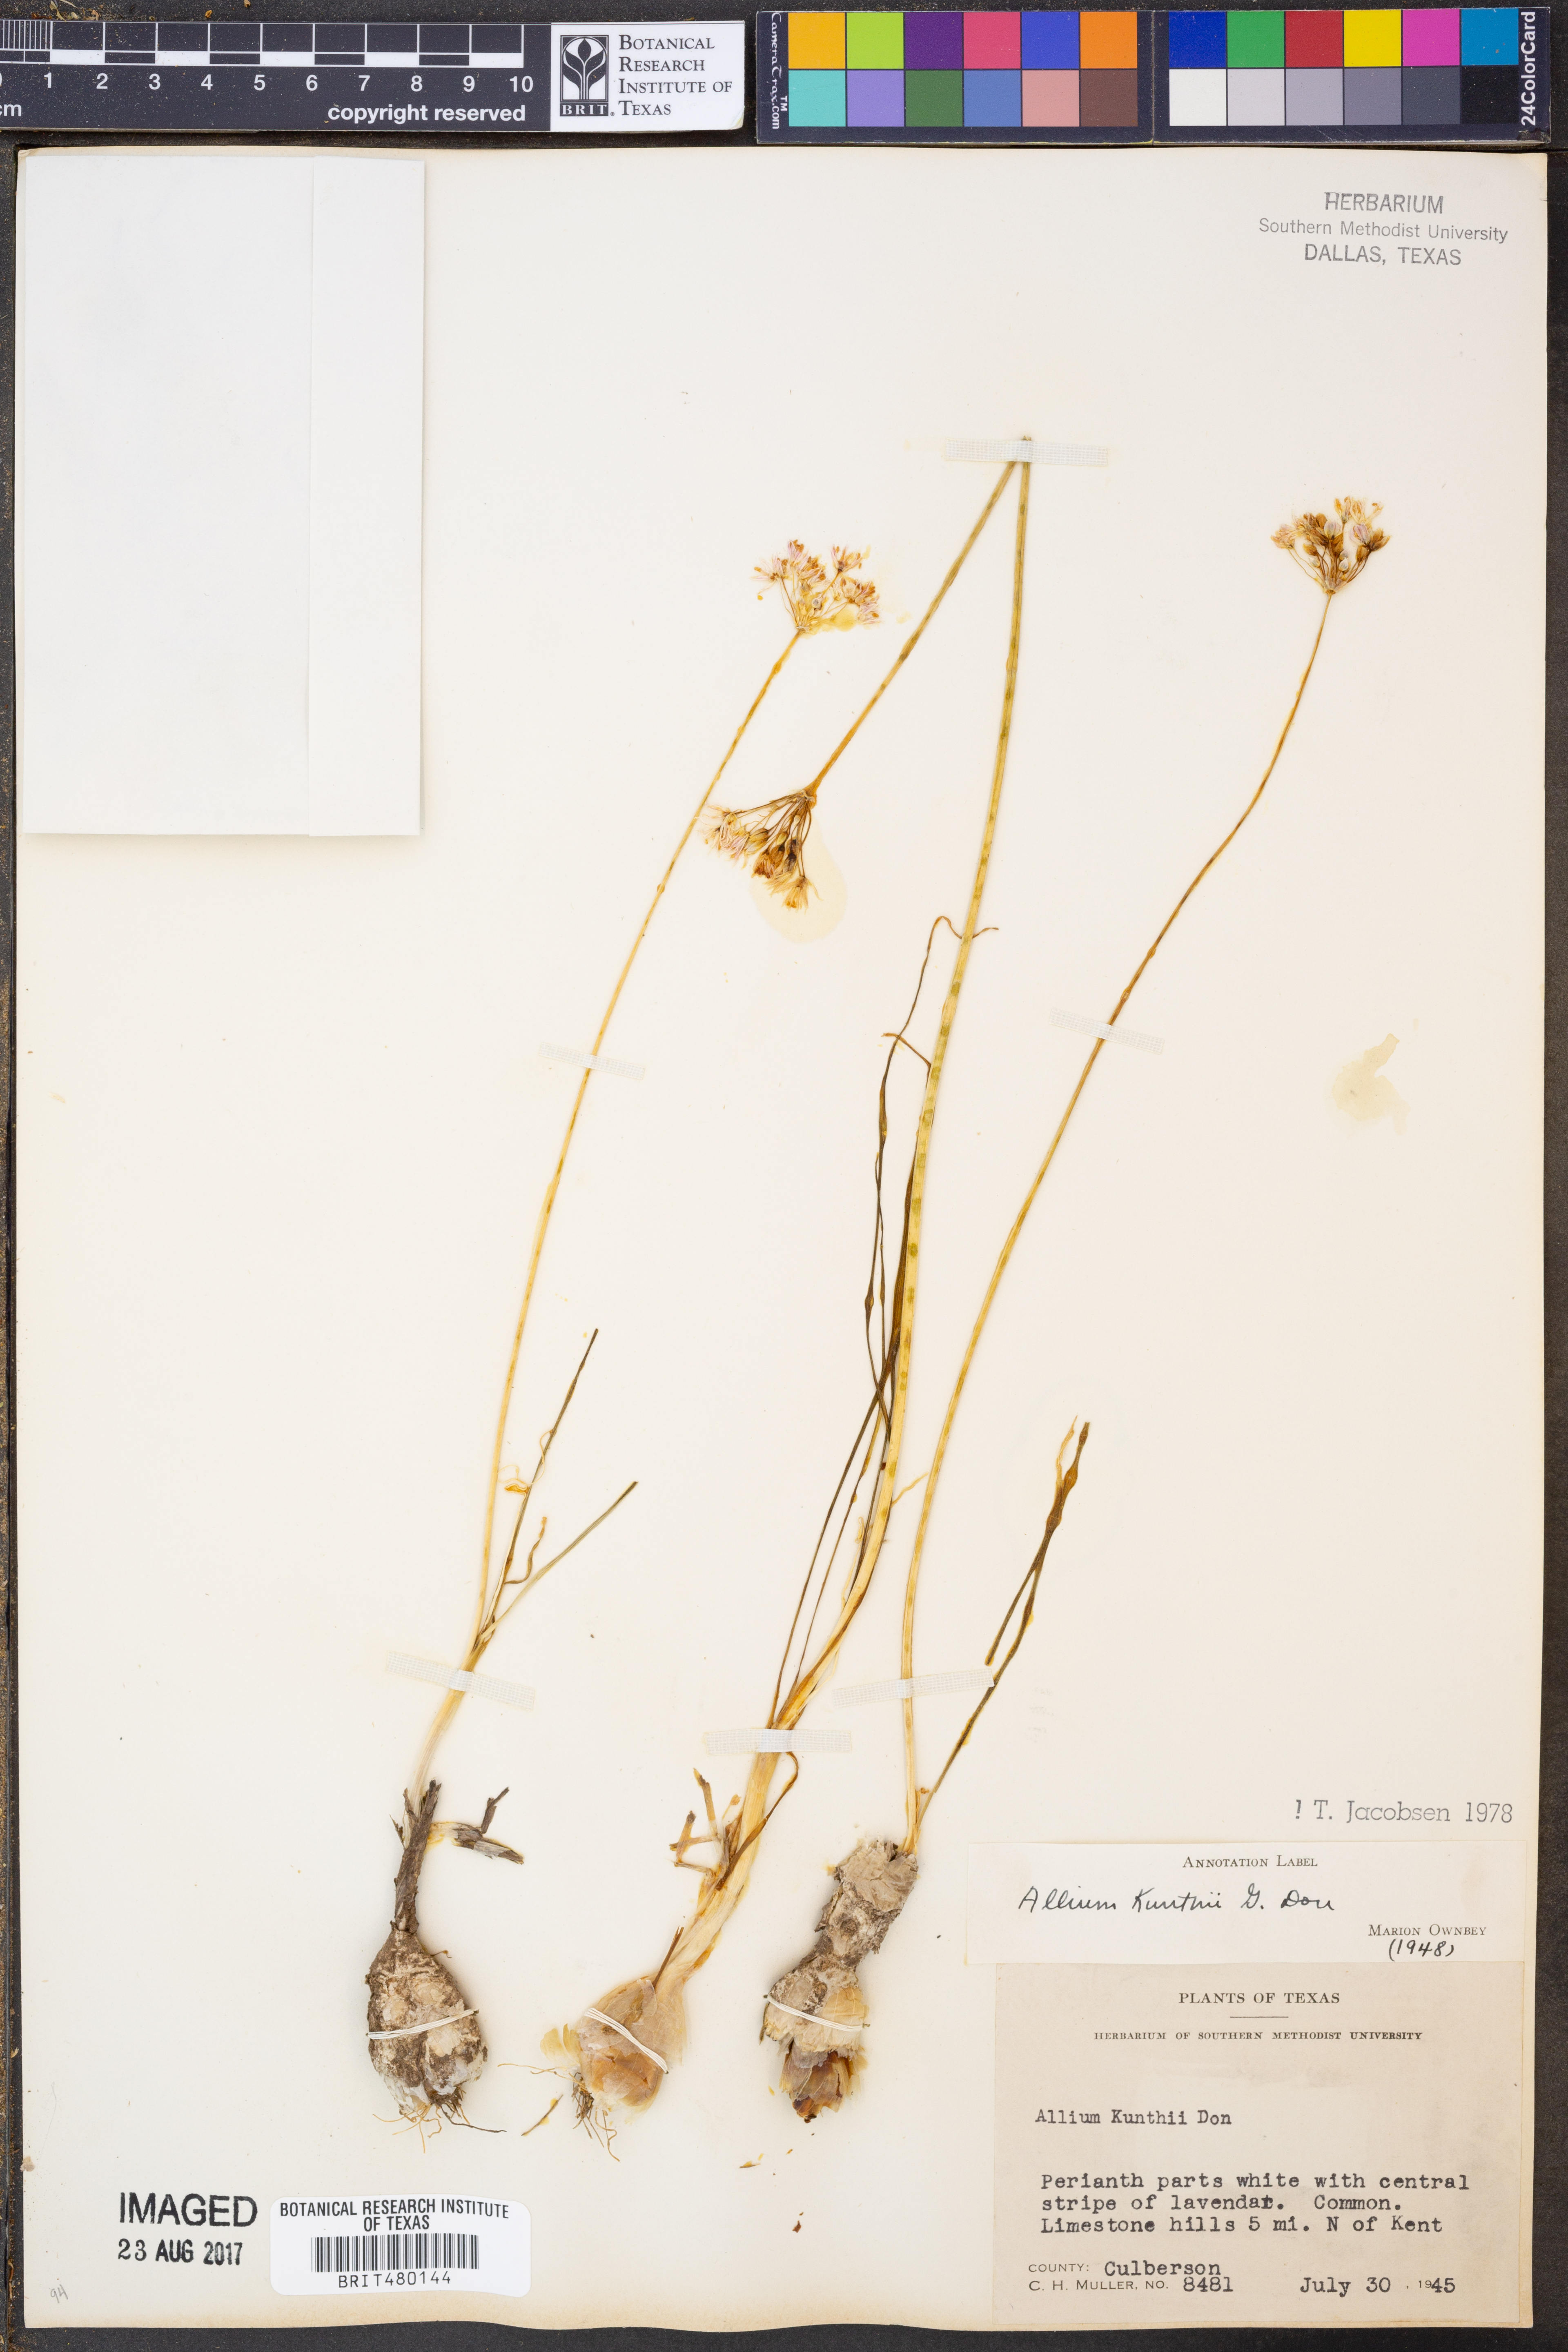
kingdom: Plantae
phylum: Tracheophyta
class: Liliopsida
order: Asparagales
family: Amaryllidaceae
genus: Allium
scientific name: Allium longifolium
